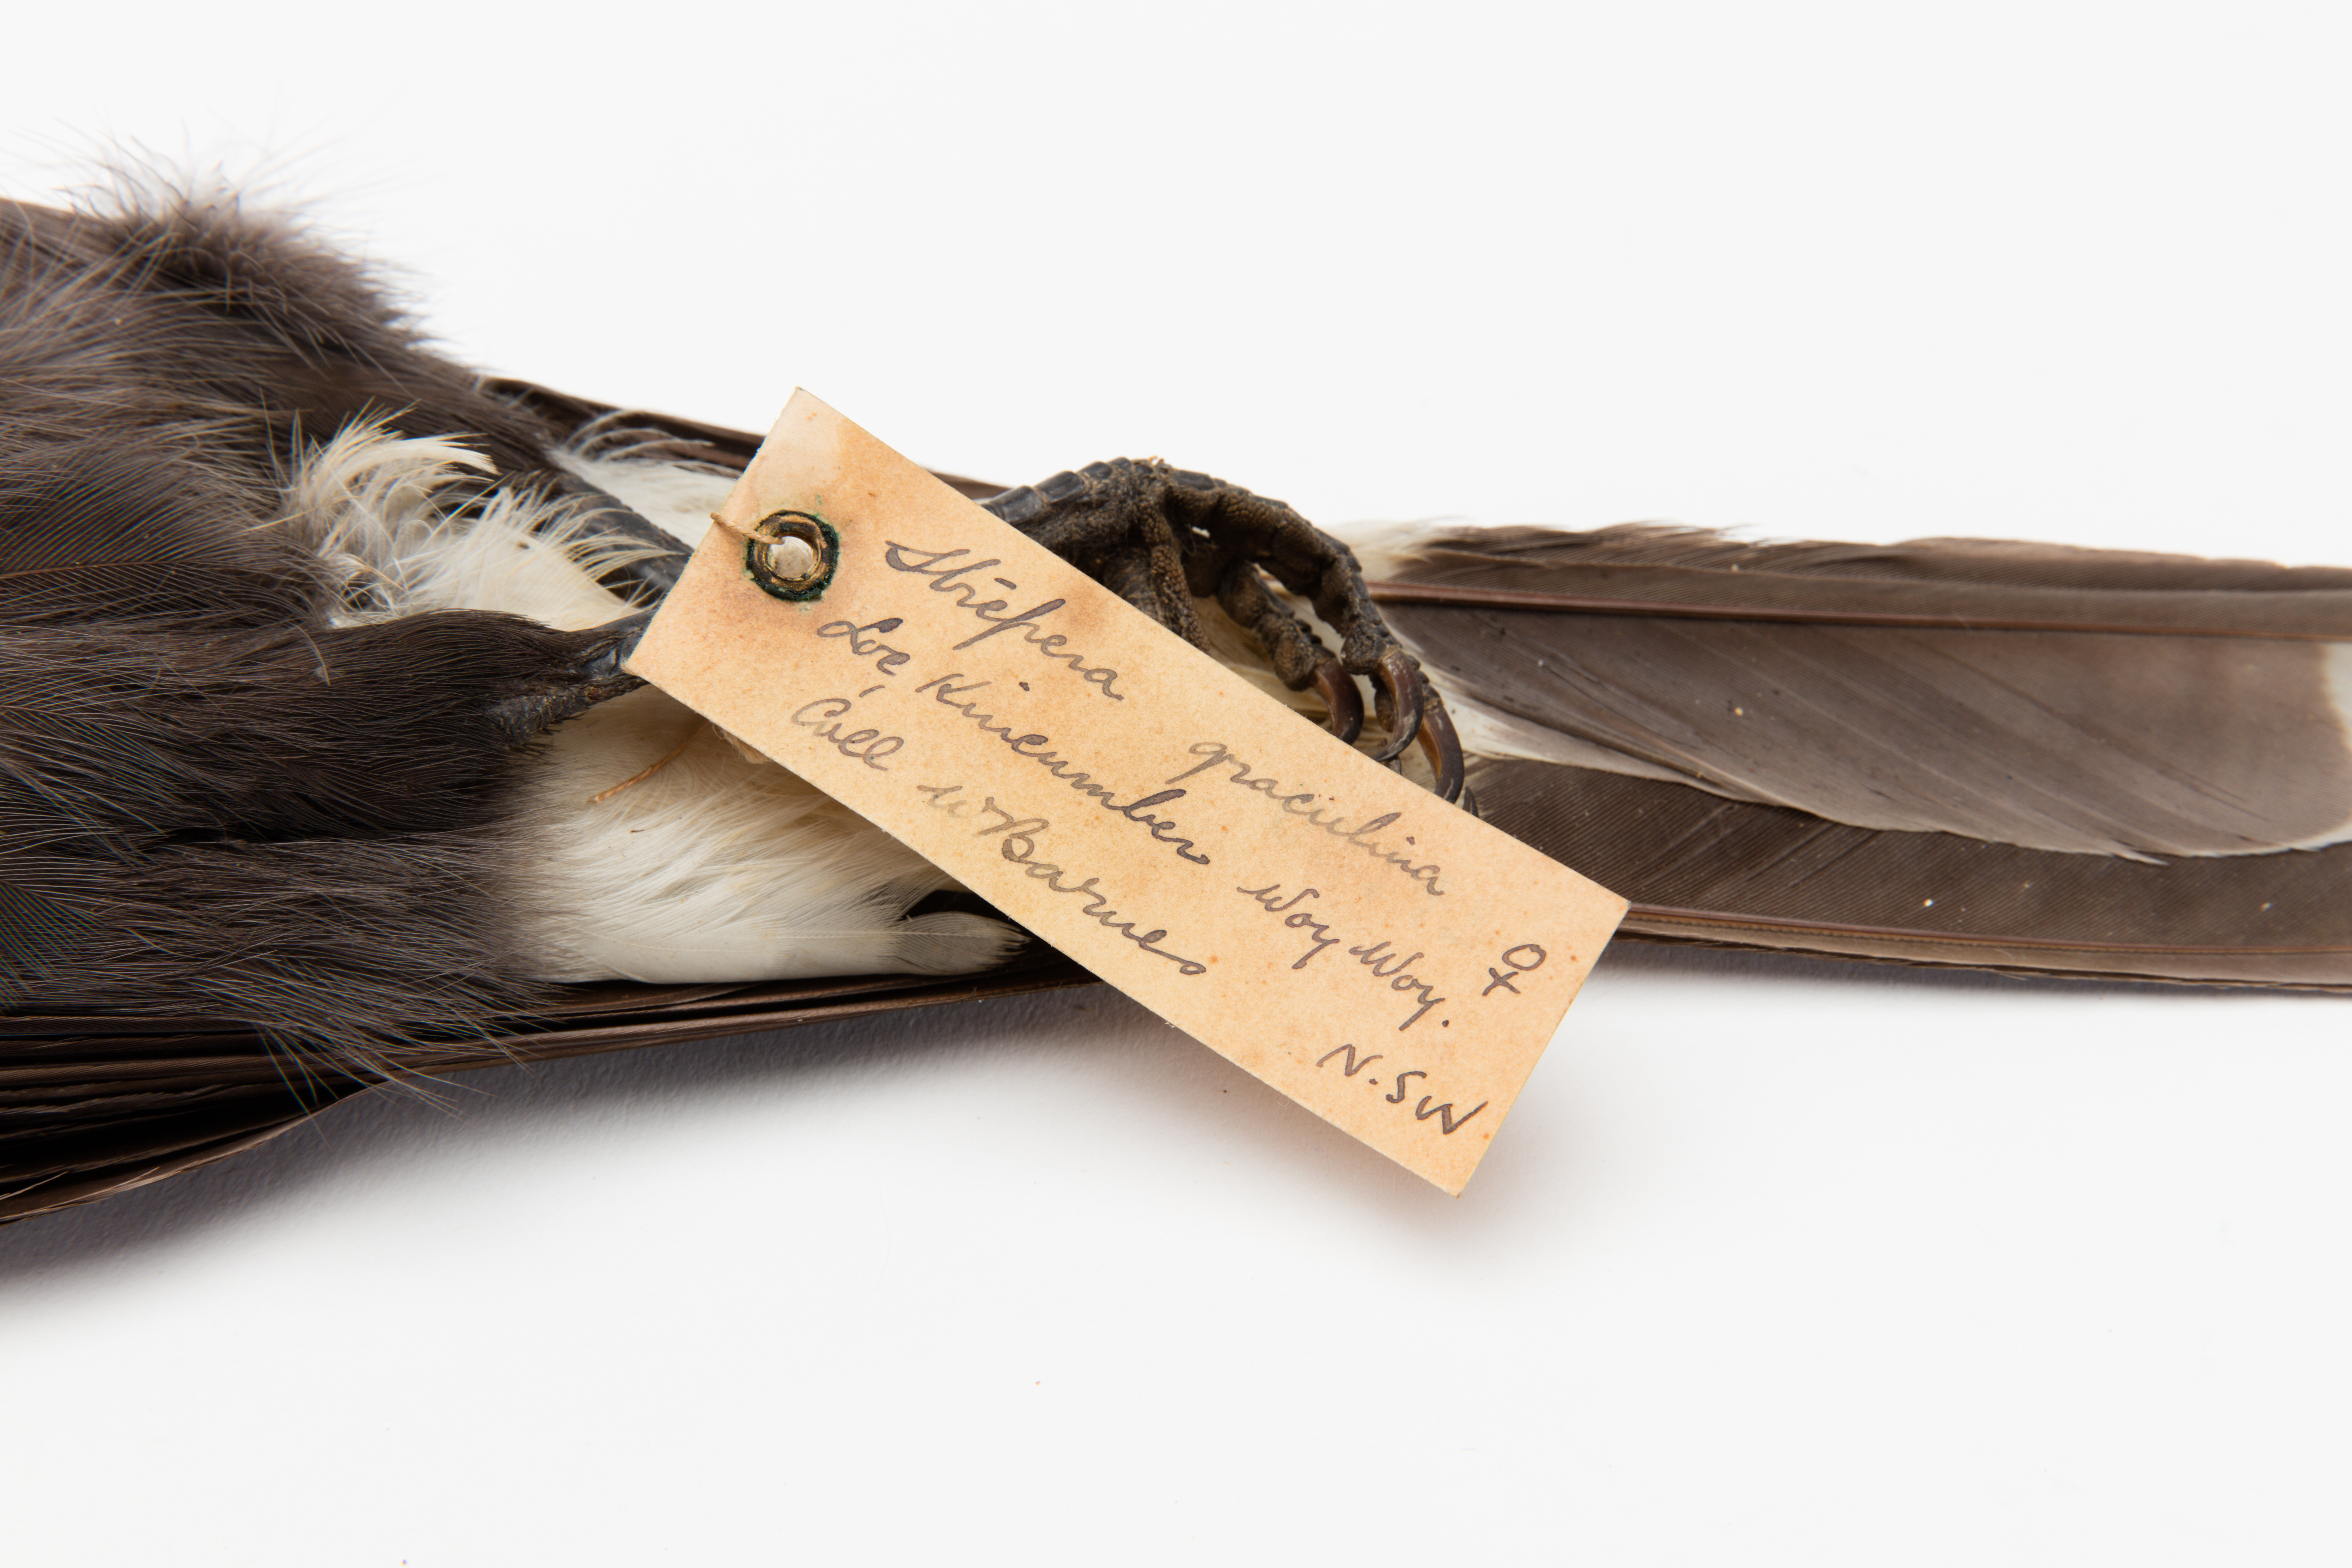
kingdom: Animalia
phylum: Chordata
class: Aves
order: Passeriformes
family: Cracticidae
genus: Strepera
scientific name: Strepera graculina
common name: Pied currawong
